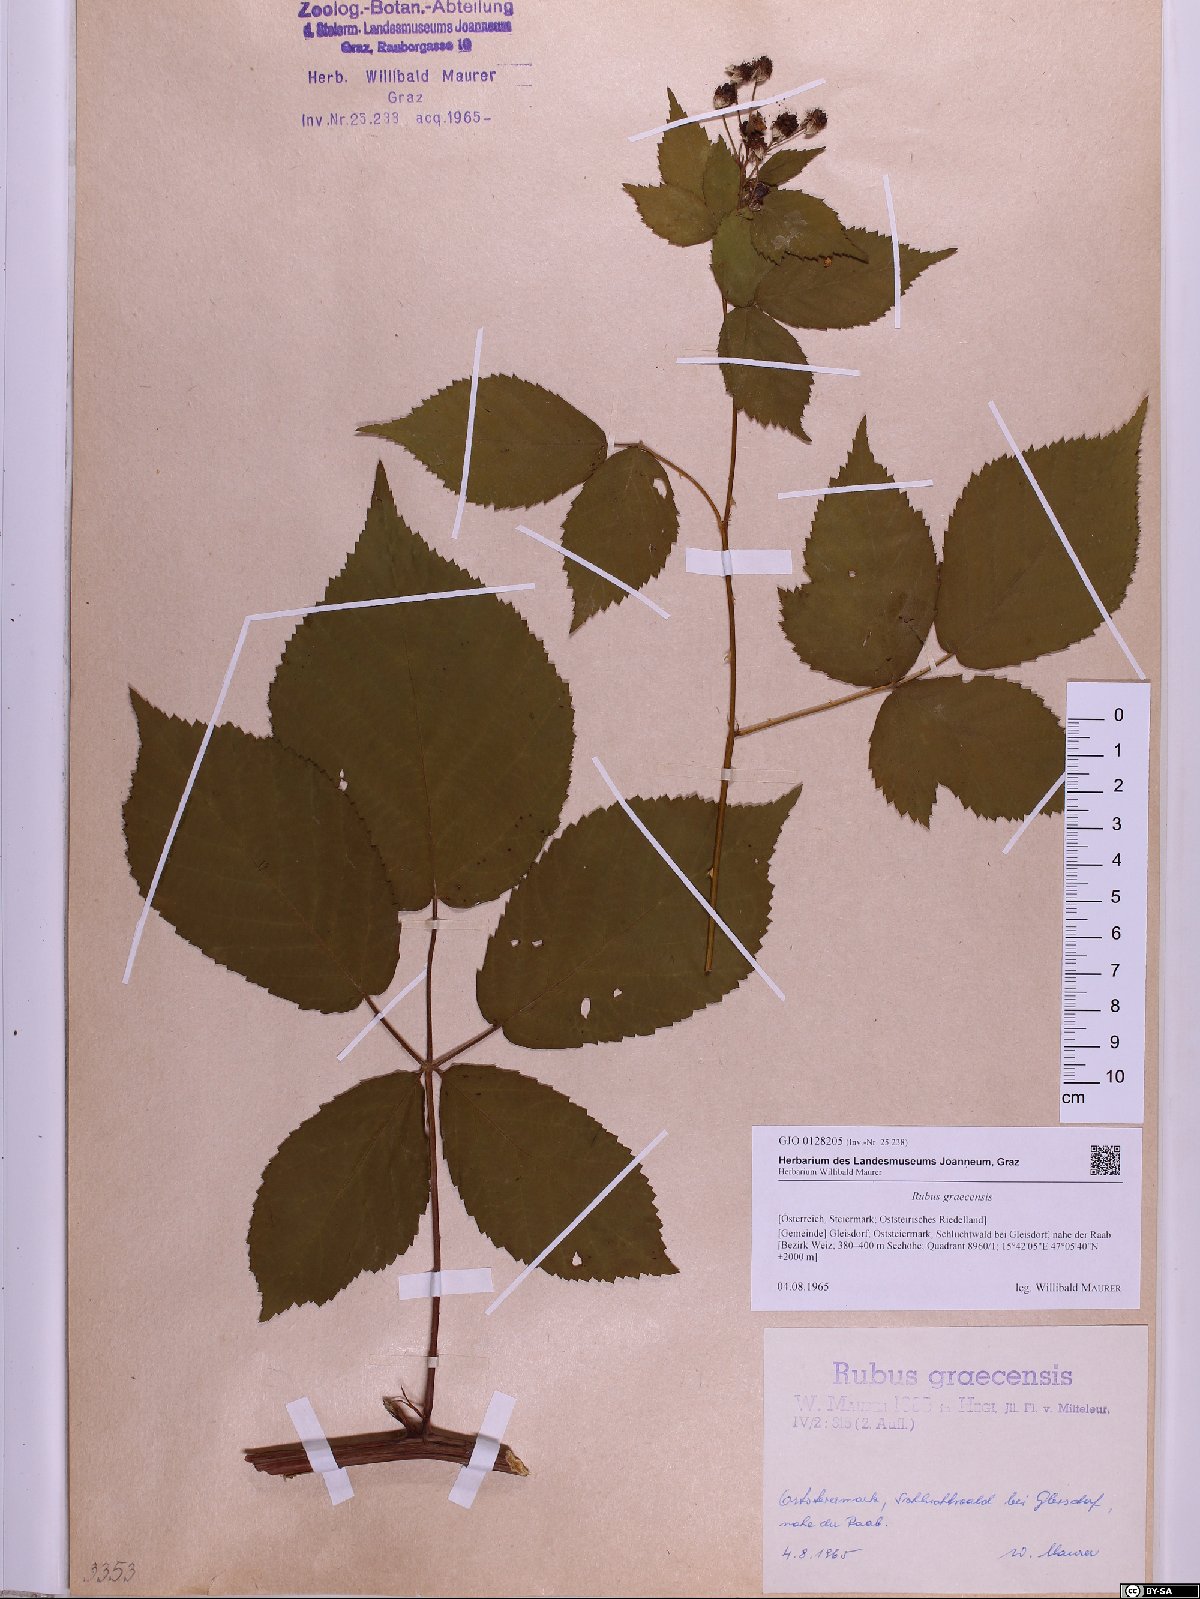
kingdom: Plantae
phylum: Tracheophyta
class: Magnoliopsida
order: Rosales
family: Rosaceae
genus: Rubus
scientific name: Rubus graecensis
